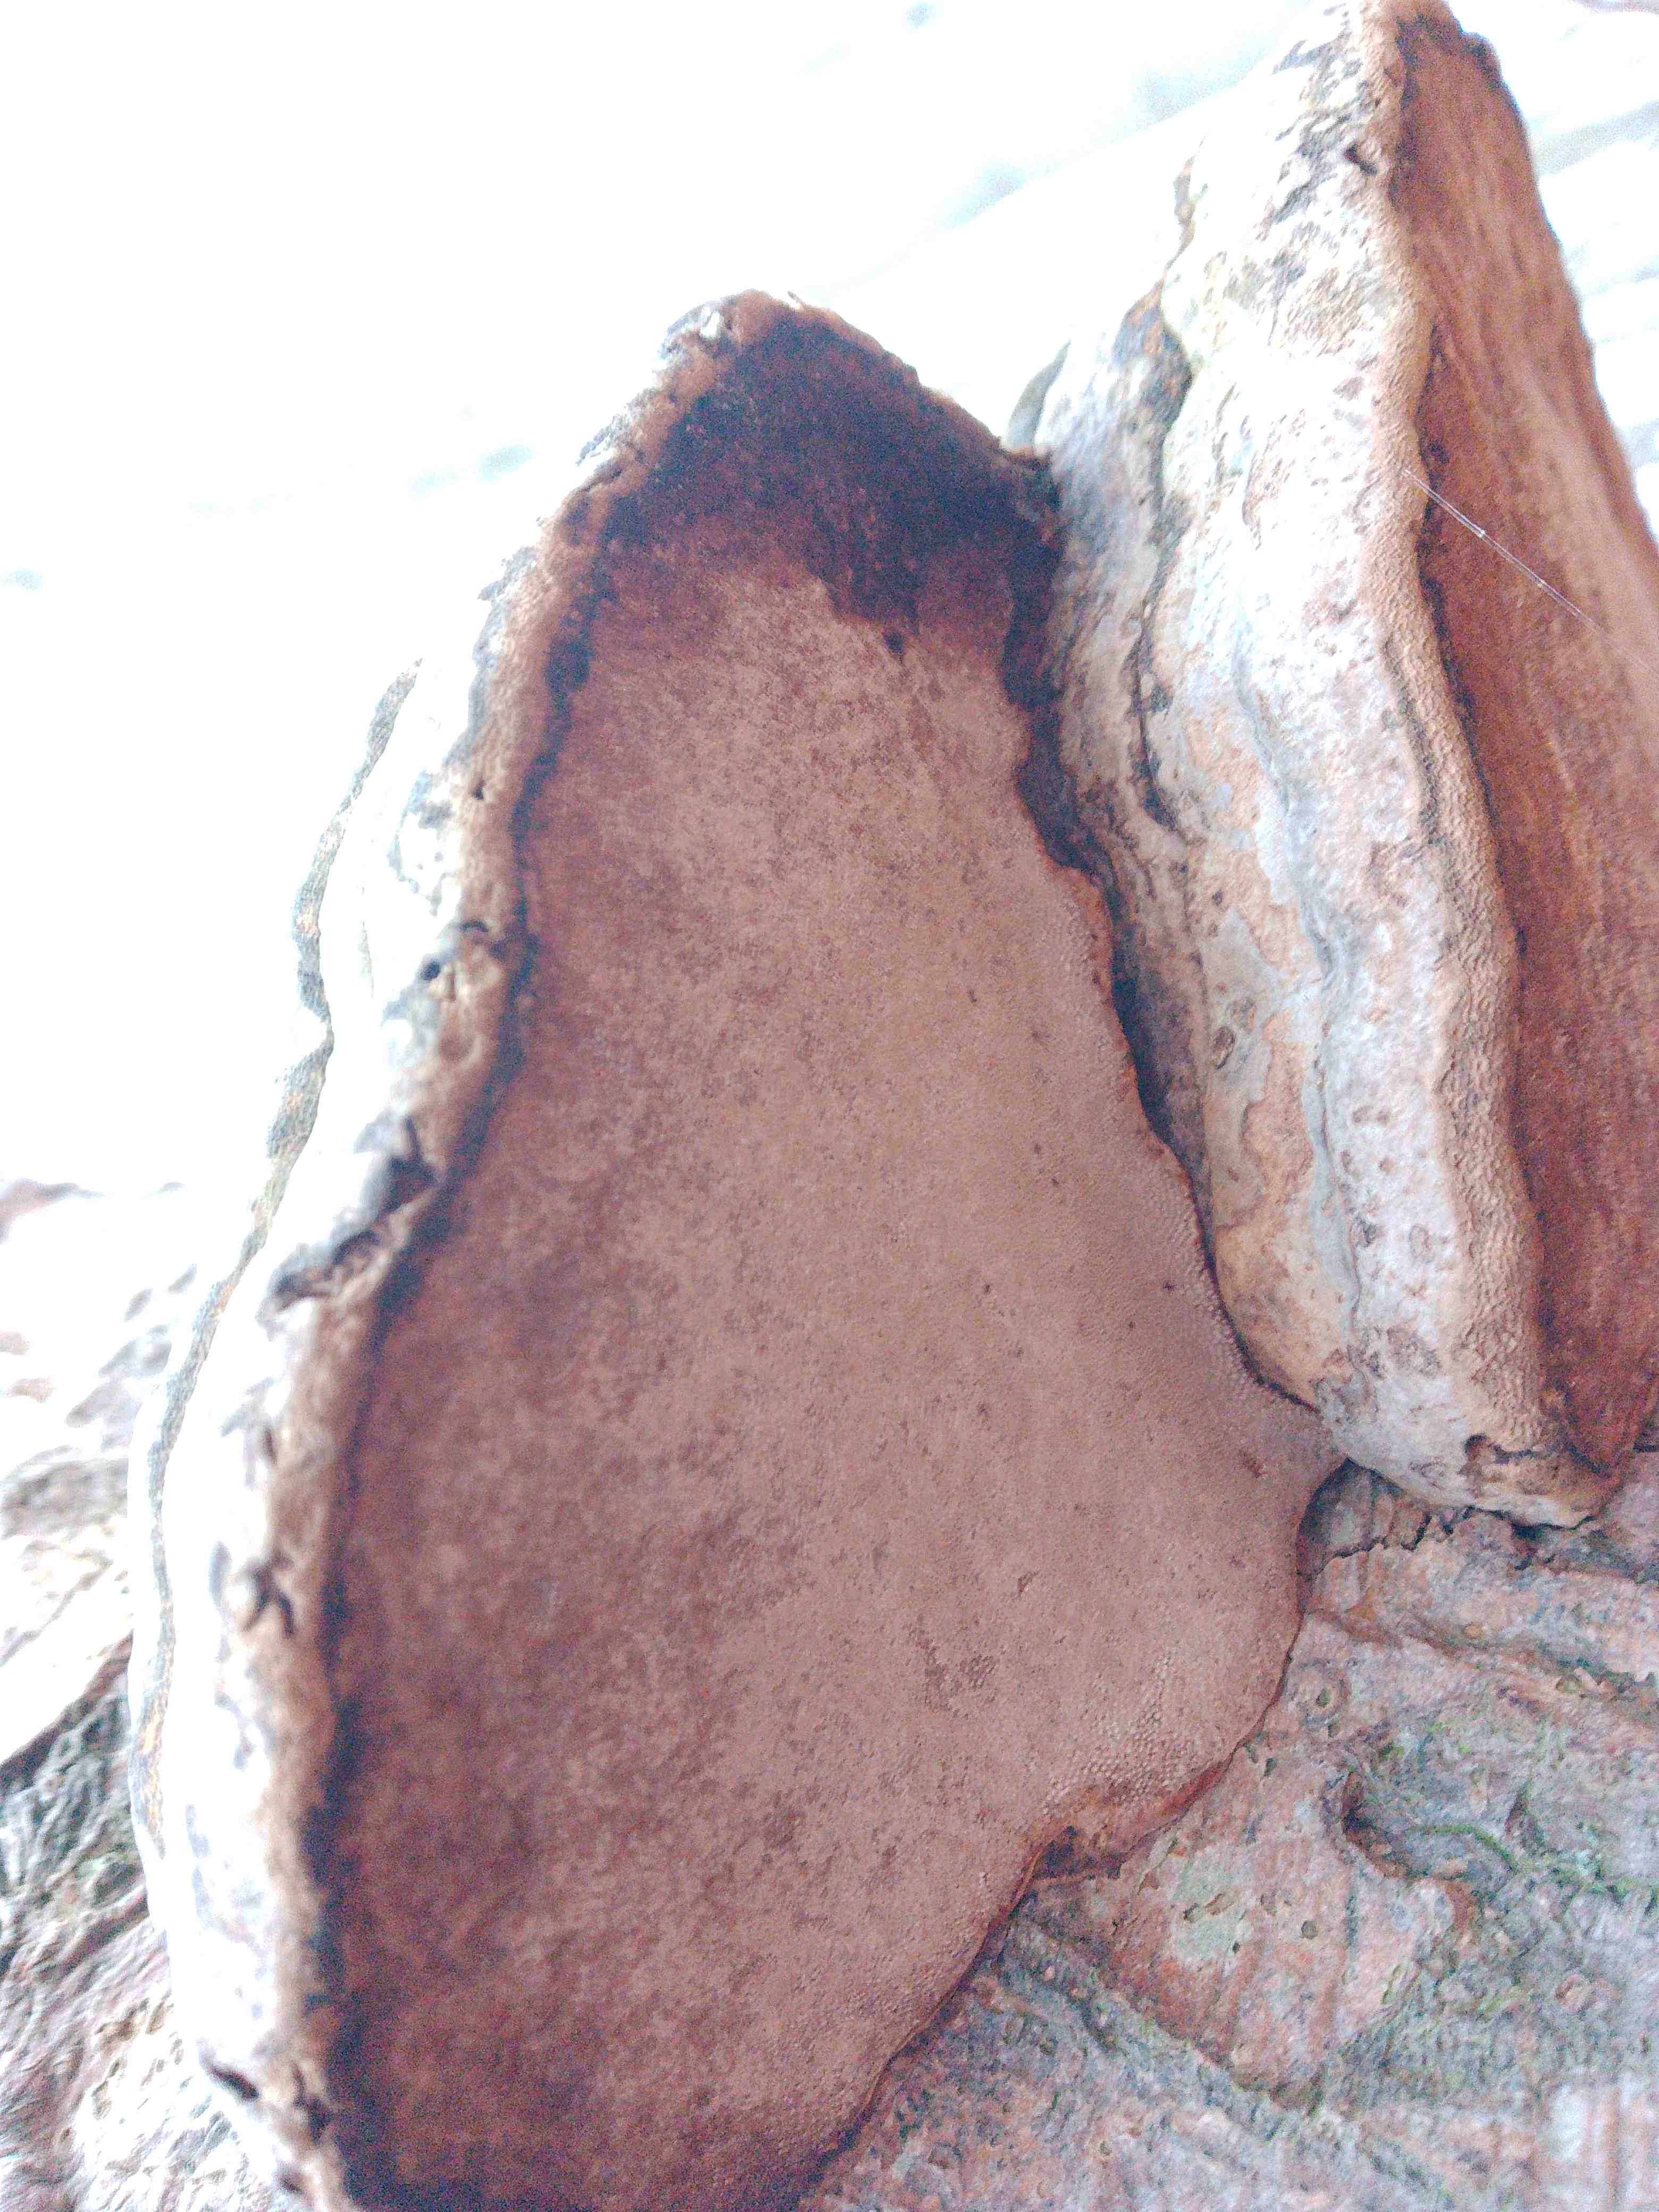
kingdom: Fungi
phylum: Basidiomycota
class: Agaricomycetes
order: Polyporales
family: Polyporaceae
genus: Fomes
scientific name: Fomes fomentarius
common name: tøndersvamp
